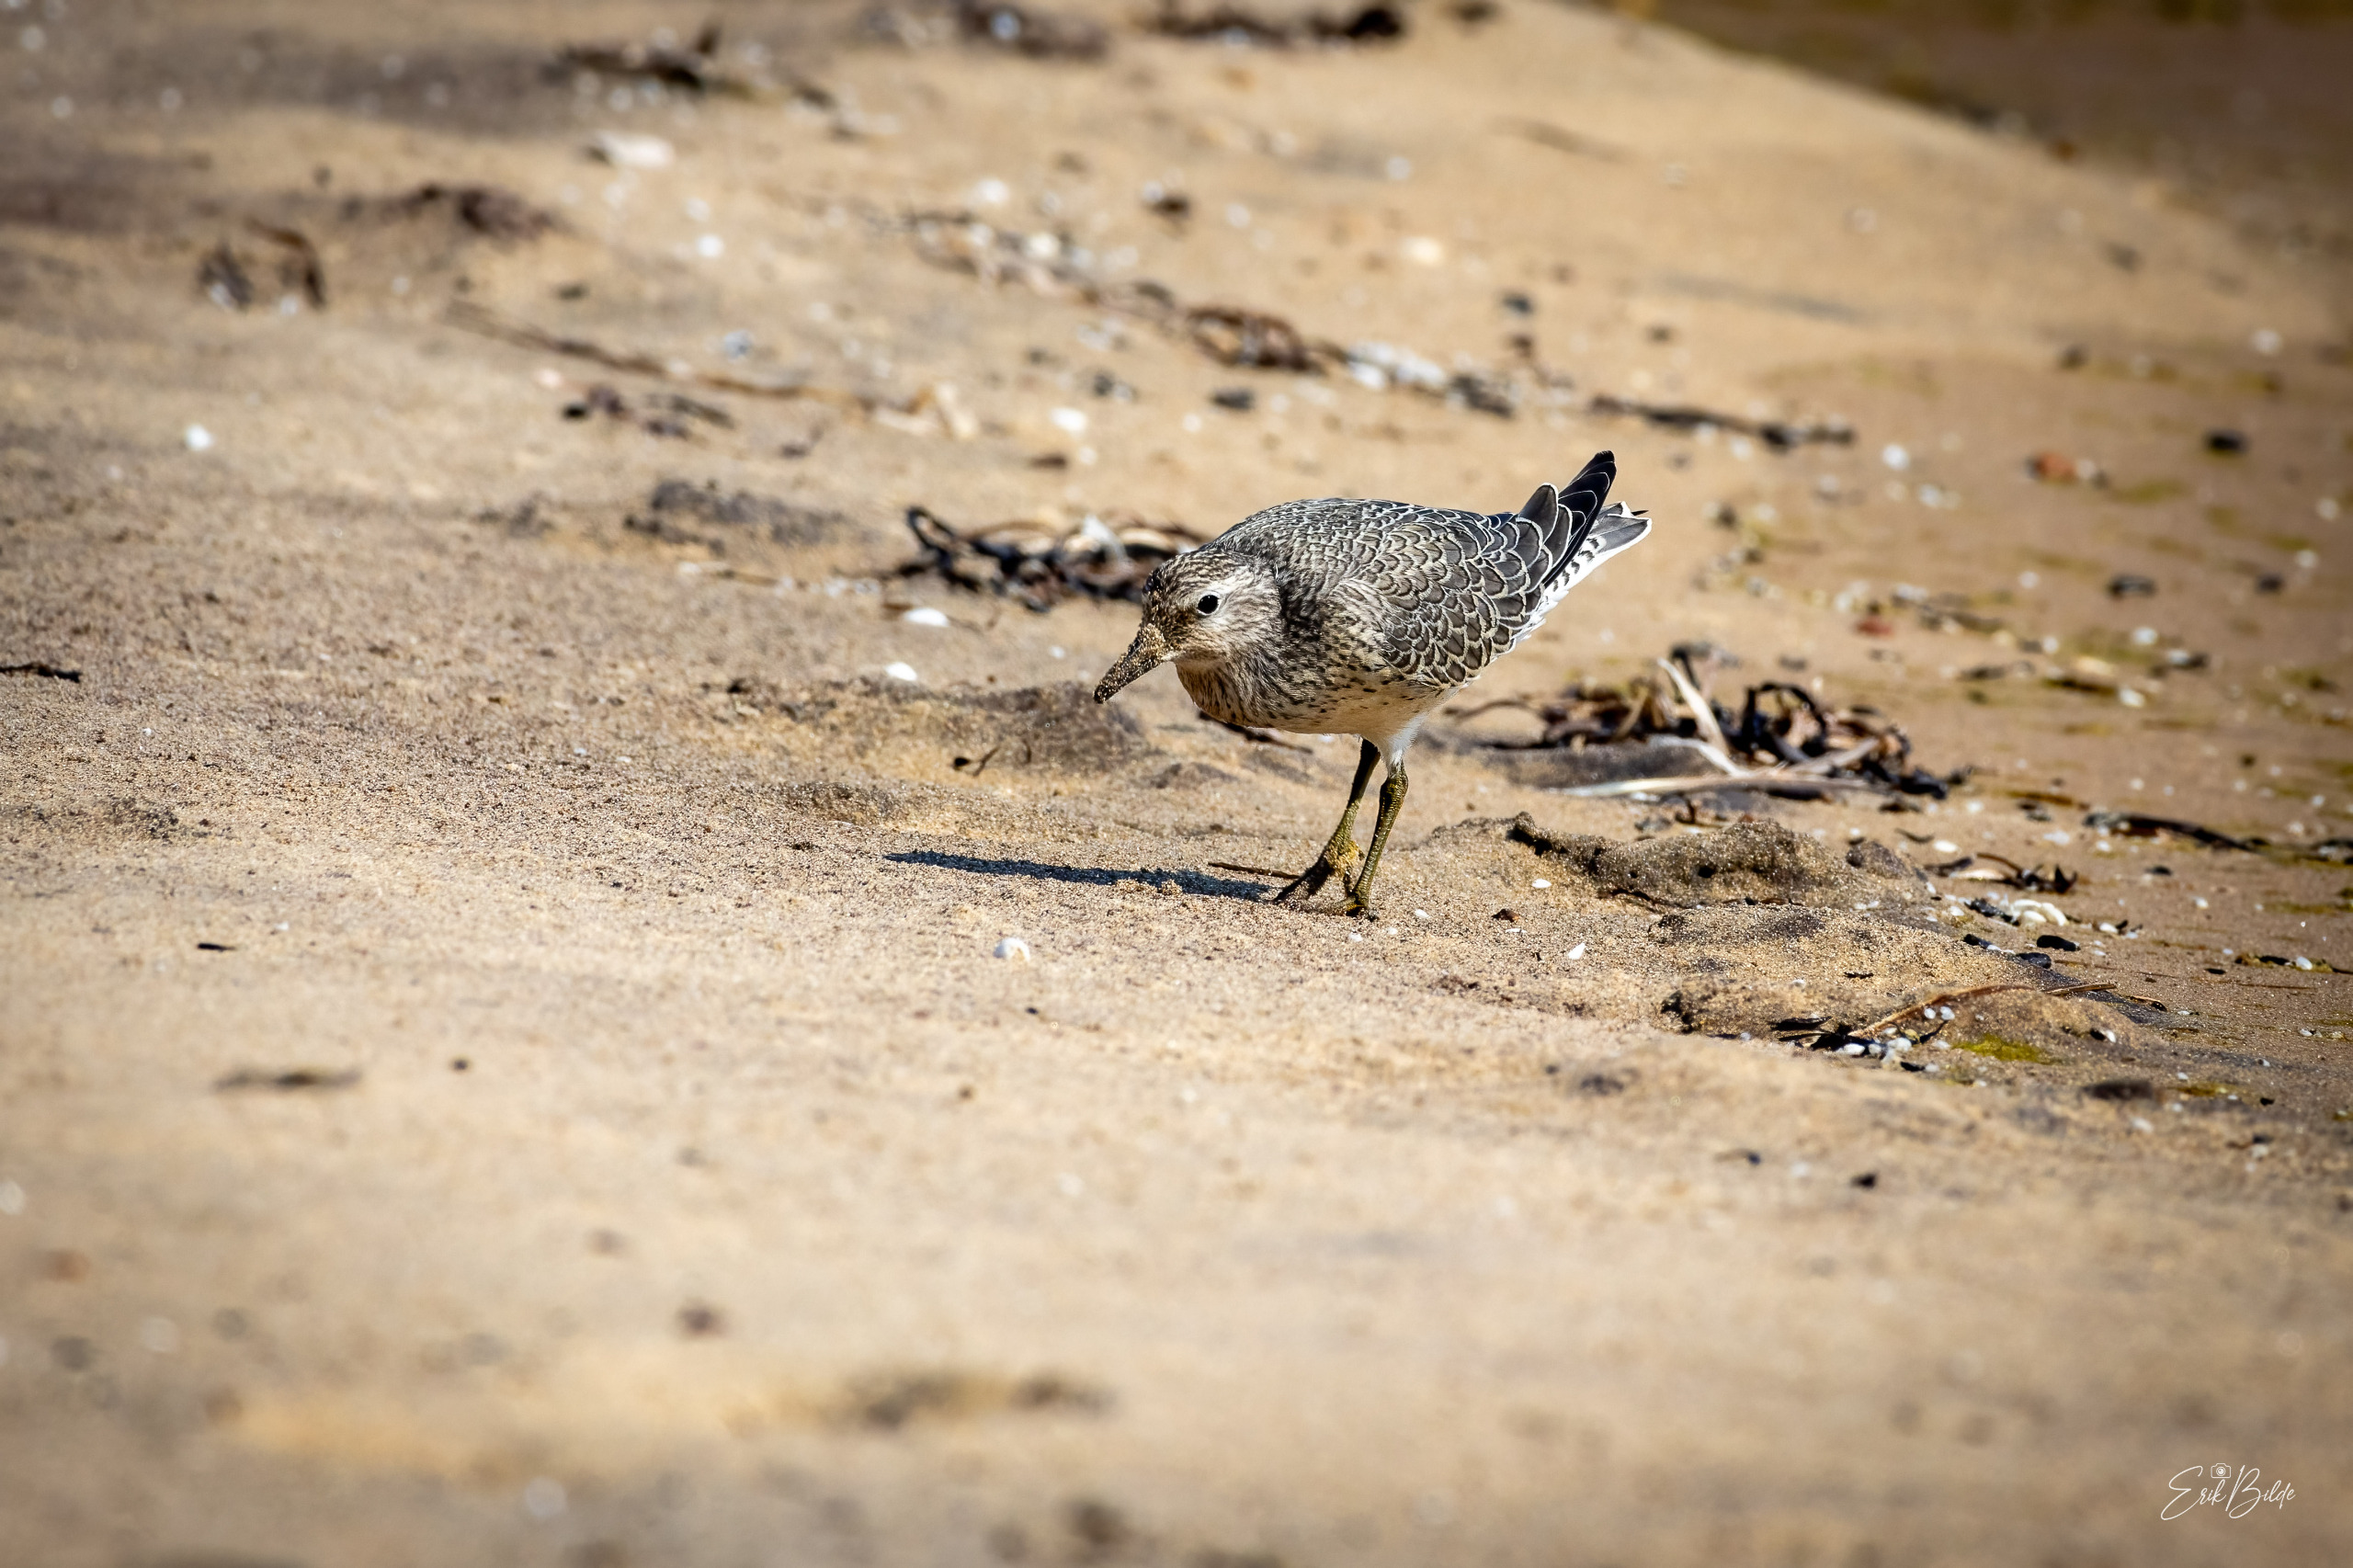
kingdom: Animalia
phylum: Chordata
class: Aves
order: Charadriiformes
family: Scolopacidae
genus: Calidris
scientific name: Calidris canutus
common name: Islandsk ryle
